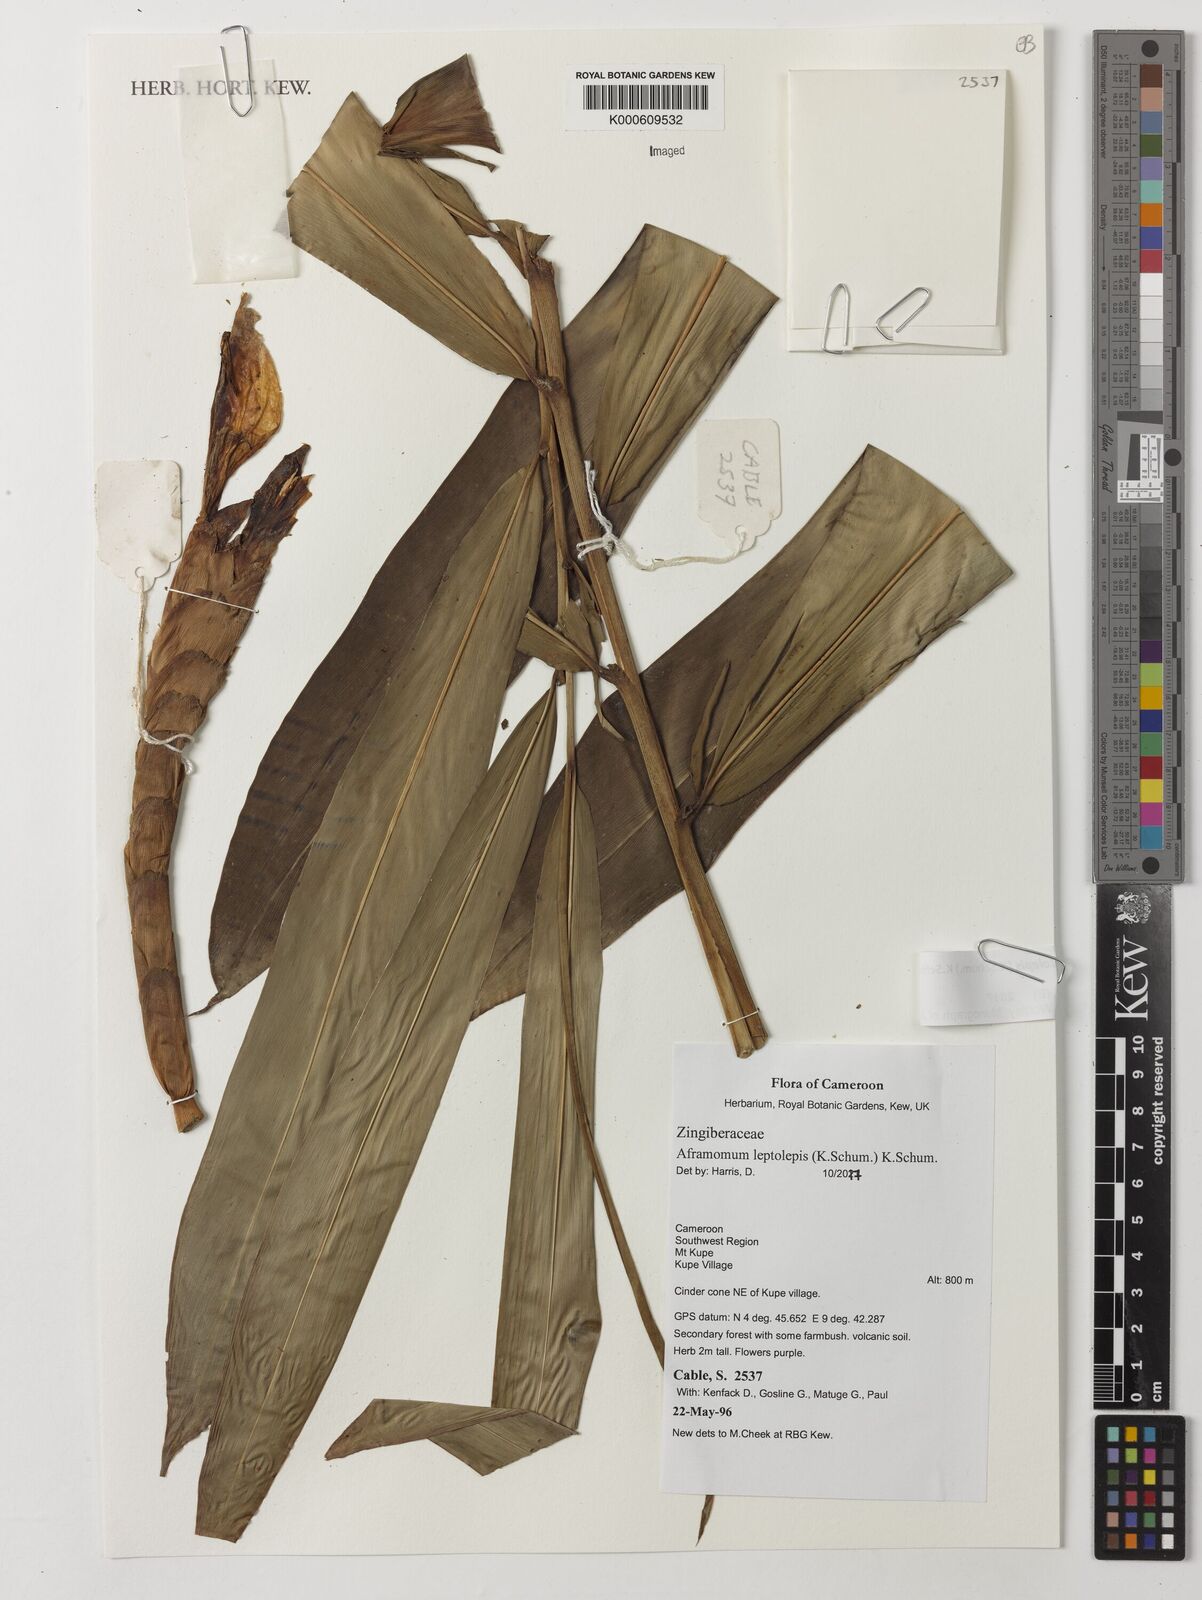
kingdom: Plantae
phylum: Tracheophyta
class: Liliopsida
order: Zingiberales
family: Zingiberaceae
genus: Aframomum
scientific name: Aframomum leptolepis
